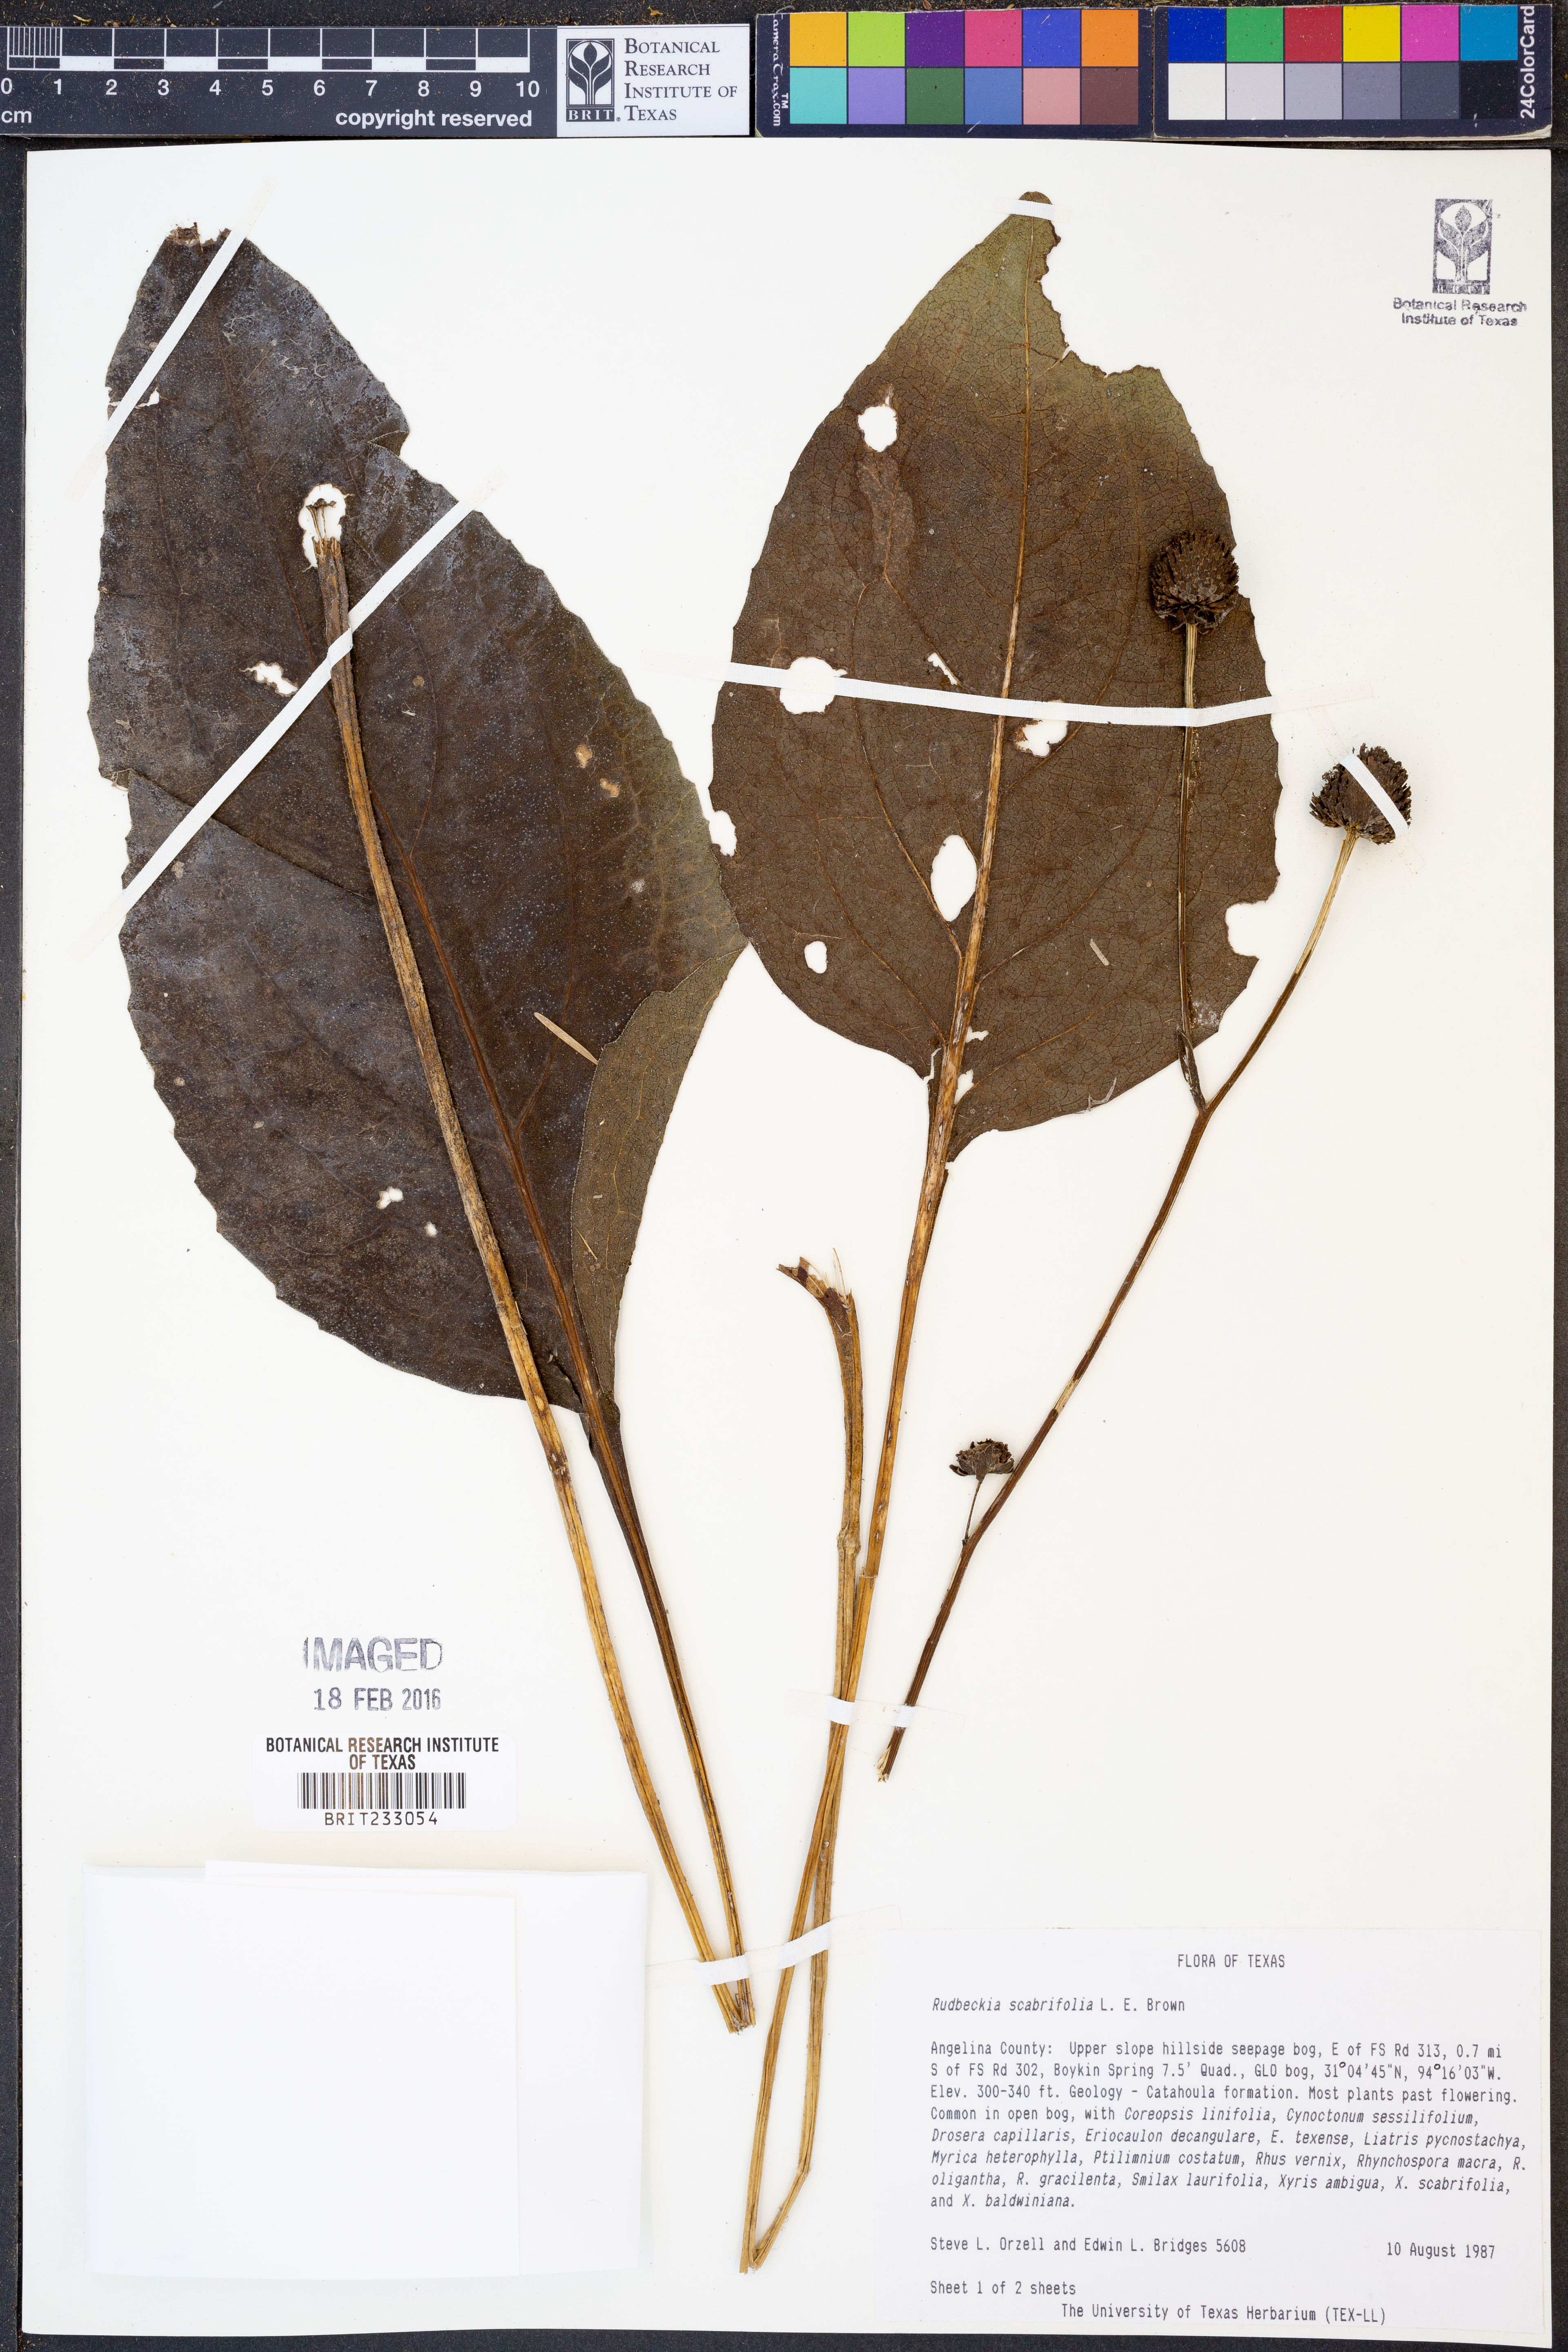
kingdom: Plantae
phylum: Tracheophyta
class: Magnoliopsida
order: Asterales
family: Asteraceae
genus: Rudbeckia
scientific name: Rudbeckia scabrifolia
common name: Rough-leaf coneflower
